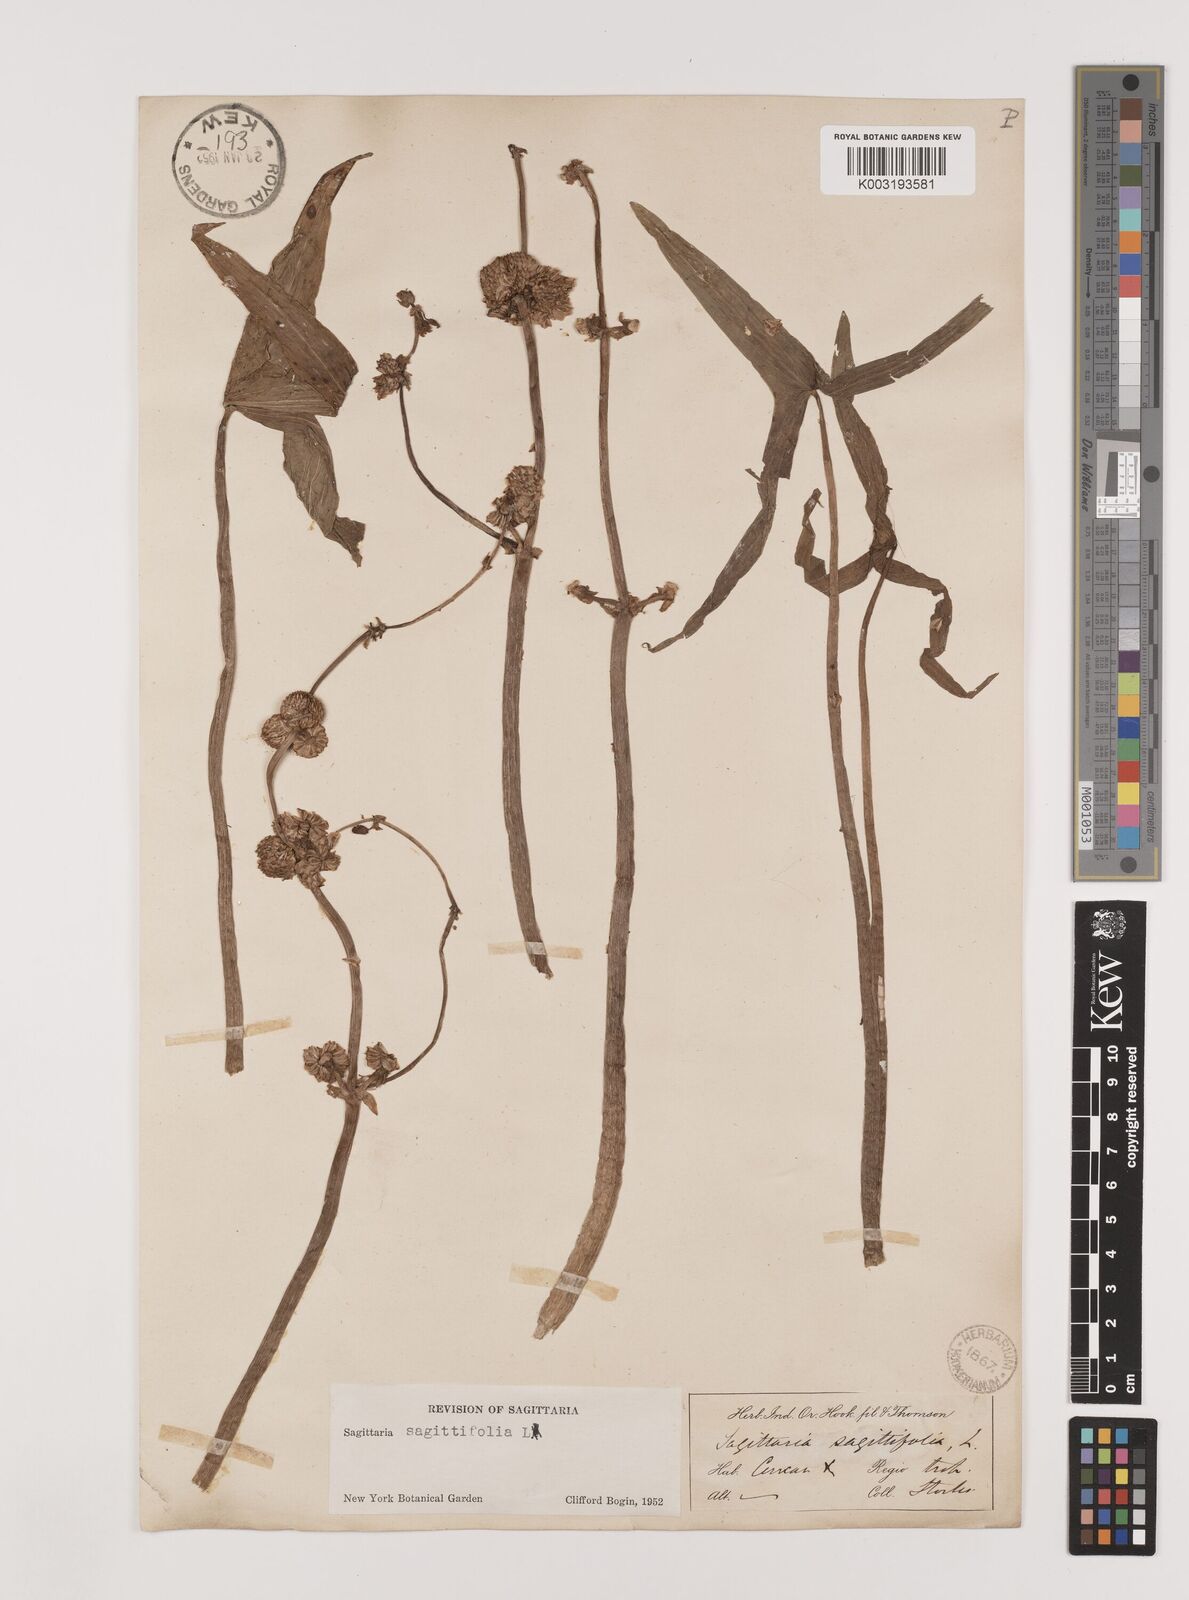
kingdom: Plantae
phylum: Tracheophyta
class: Liliopsida
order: Alismatales
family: Alismataceae
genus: Sagittaria
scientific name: Sagittaria sagittifolia
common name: Arrowhead
